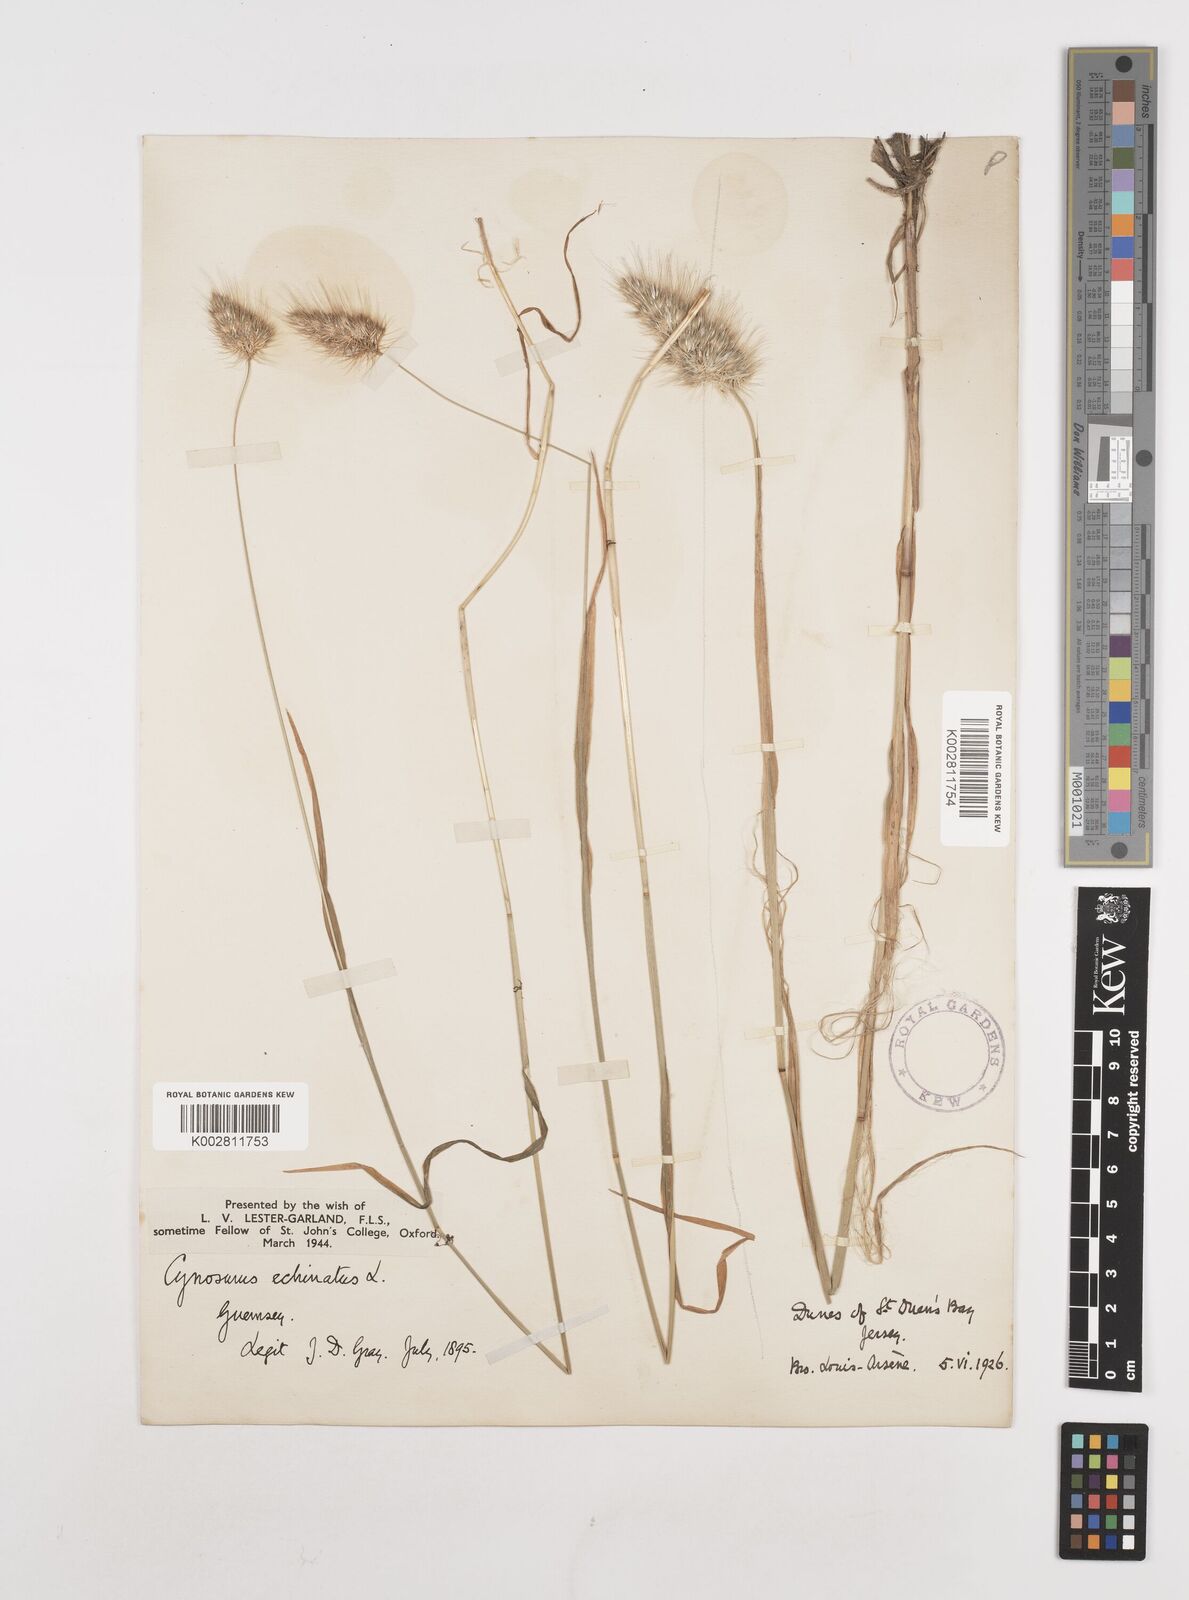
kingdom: Plantae
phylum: Tracheophyta
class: Liliopsida
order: Poales
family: Poaceae
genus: Cynosurus
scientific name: Cynosurus echinatus
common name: Rough dog's-tail
